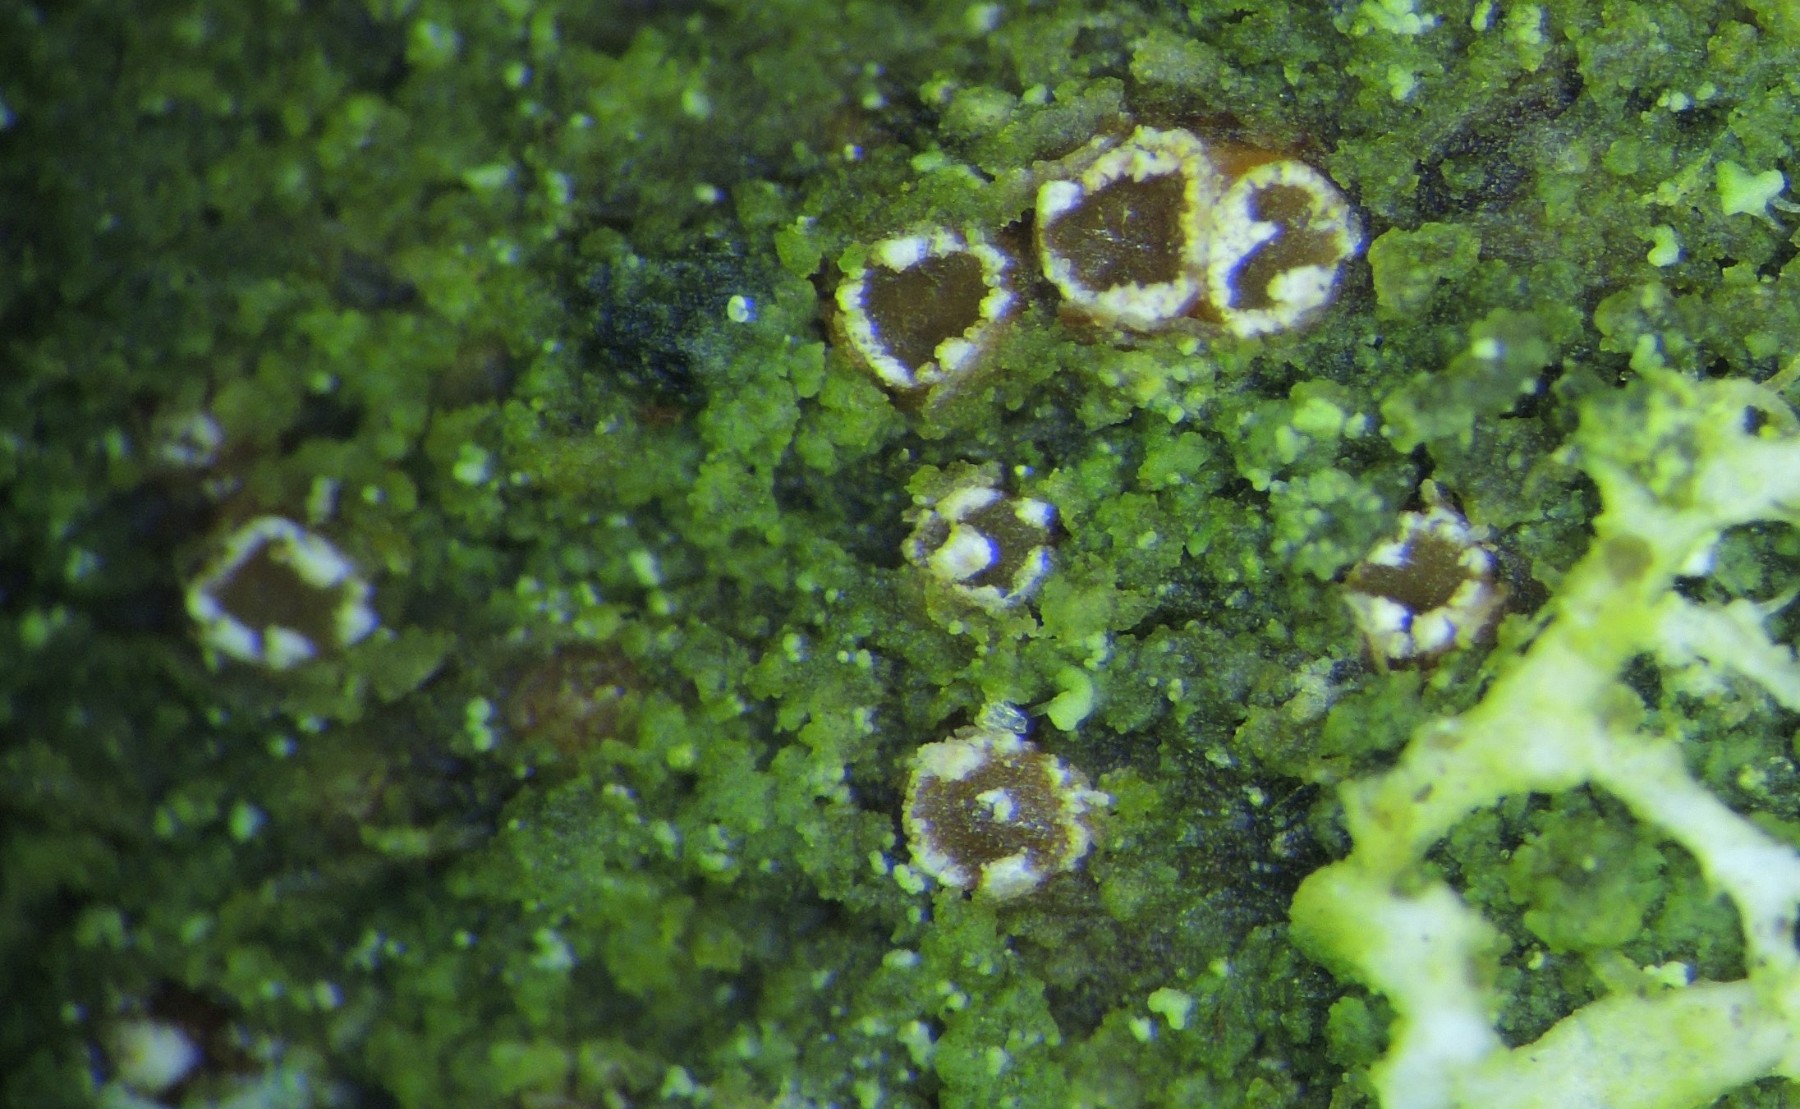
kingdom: Fungi
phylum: Ascomycota
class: Leotiomycetes
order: Helotiales
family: Dermateaceae
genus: Pezicula
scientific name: Pezicula ocellata
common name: tandet klyngeskive
